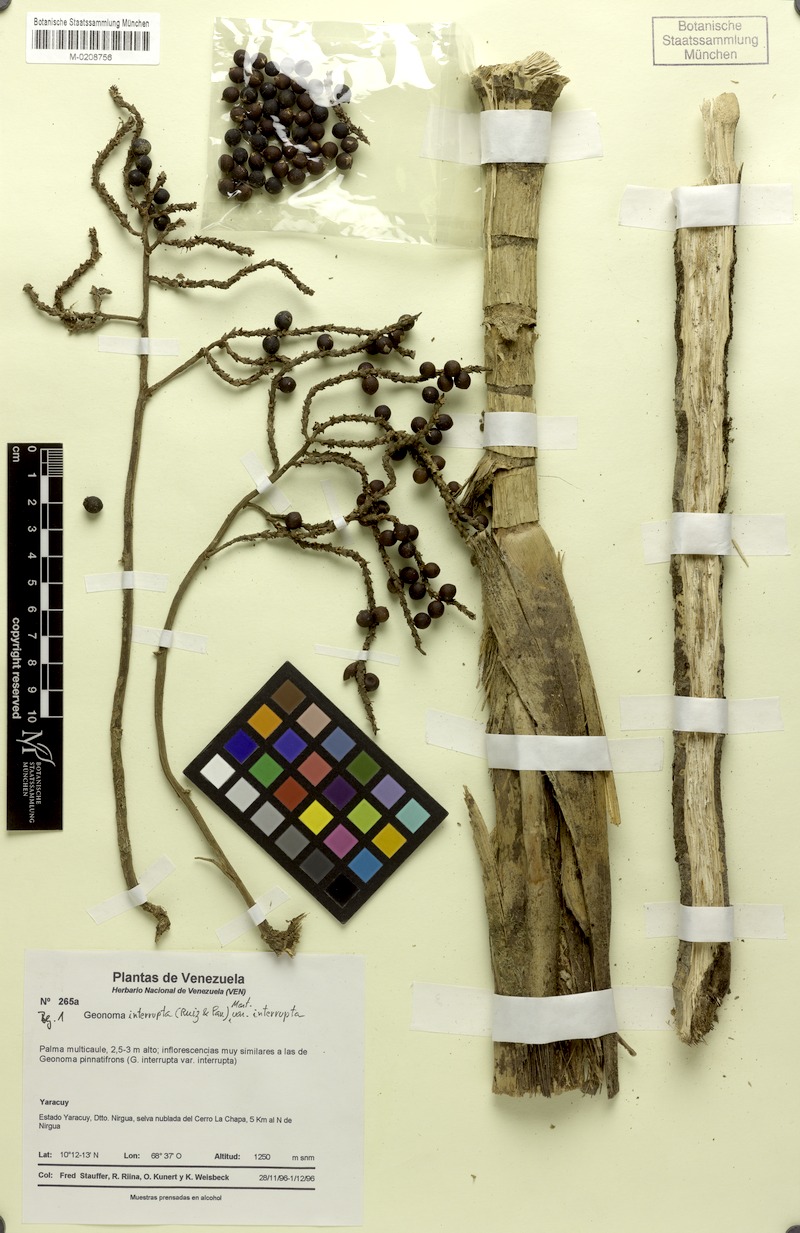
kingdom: Plantae
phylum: Tracheophyta
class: Liliopsida
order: Arecales
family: Arecaceae
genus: Geonoma
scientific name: Geonoma interrupta
